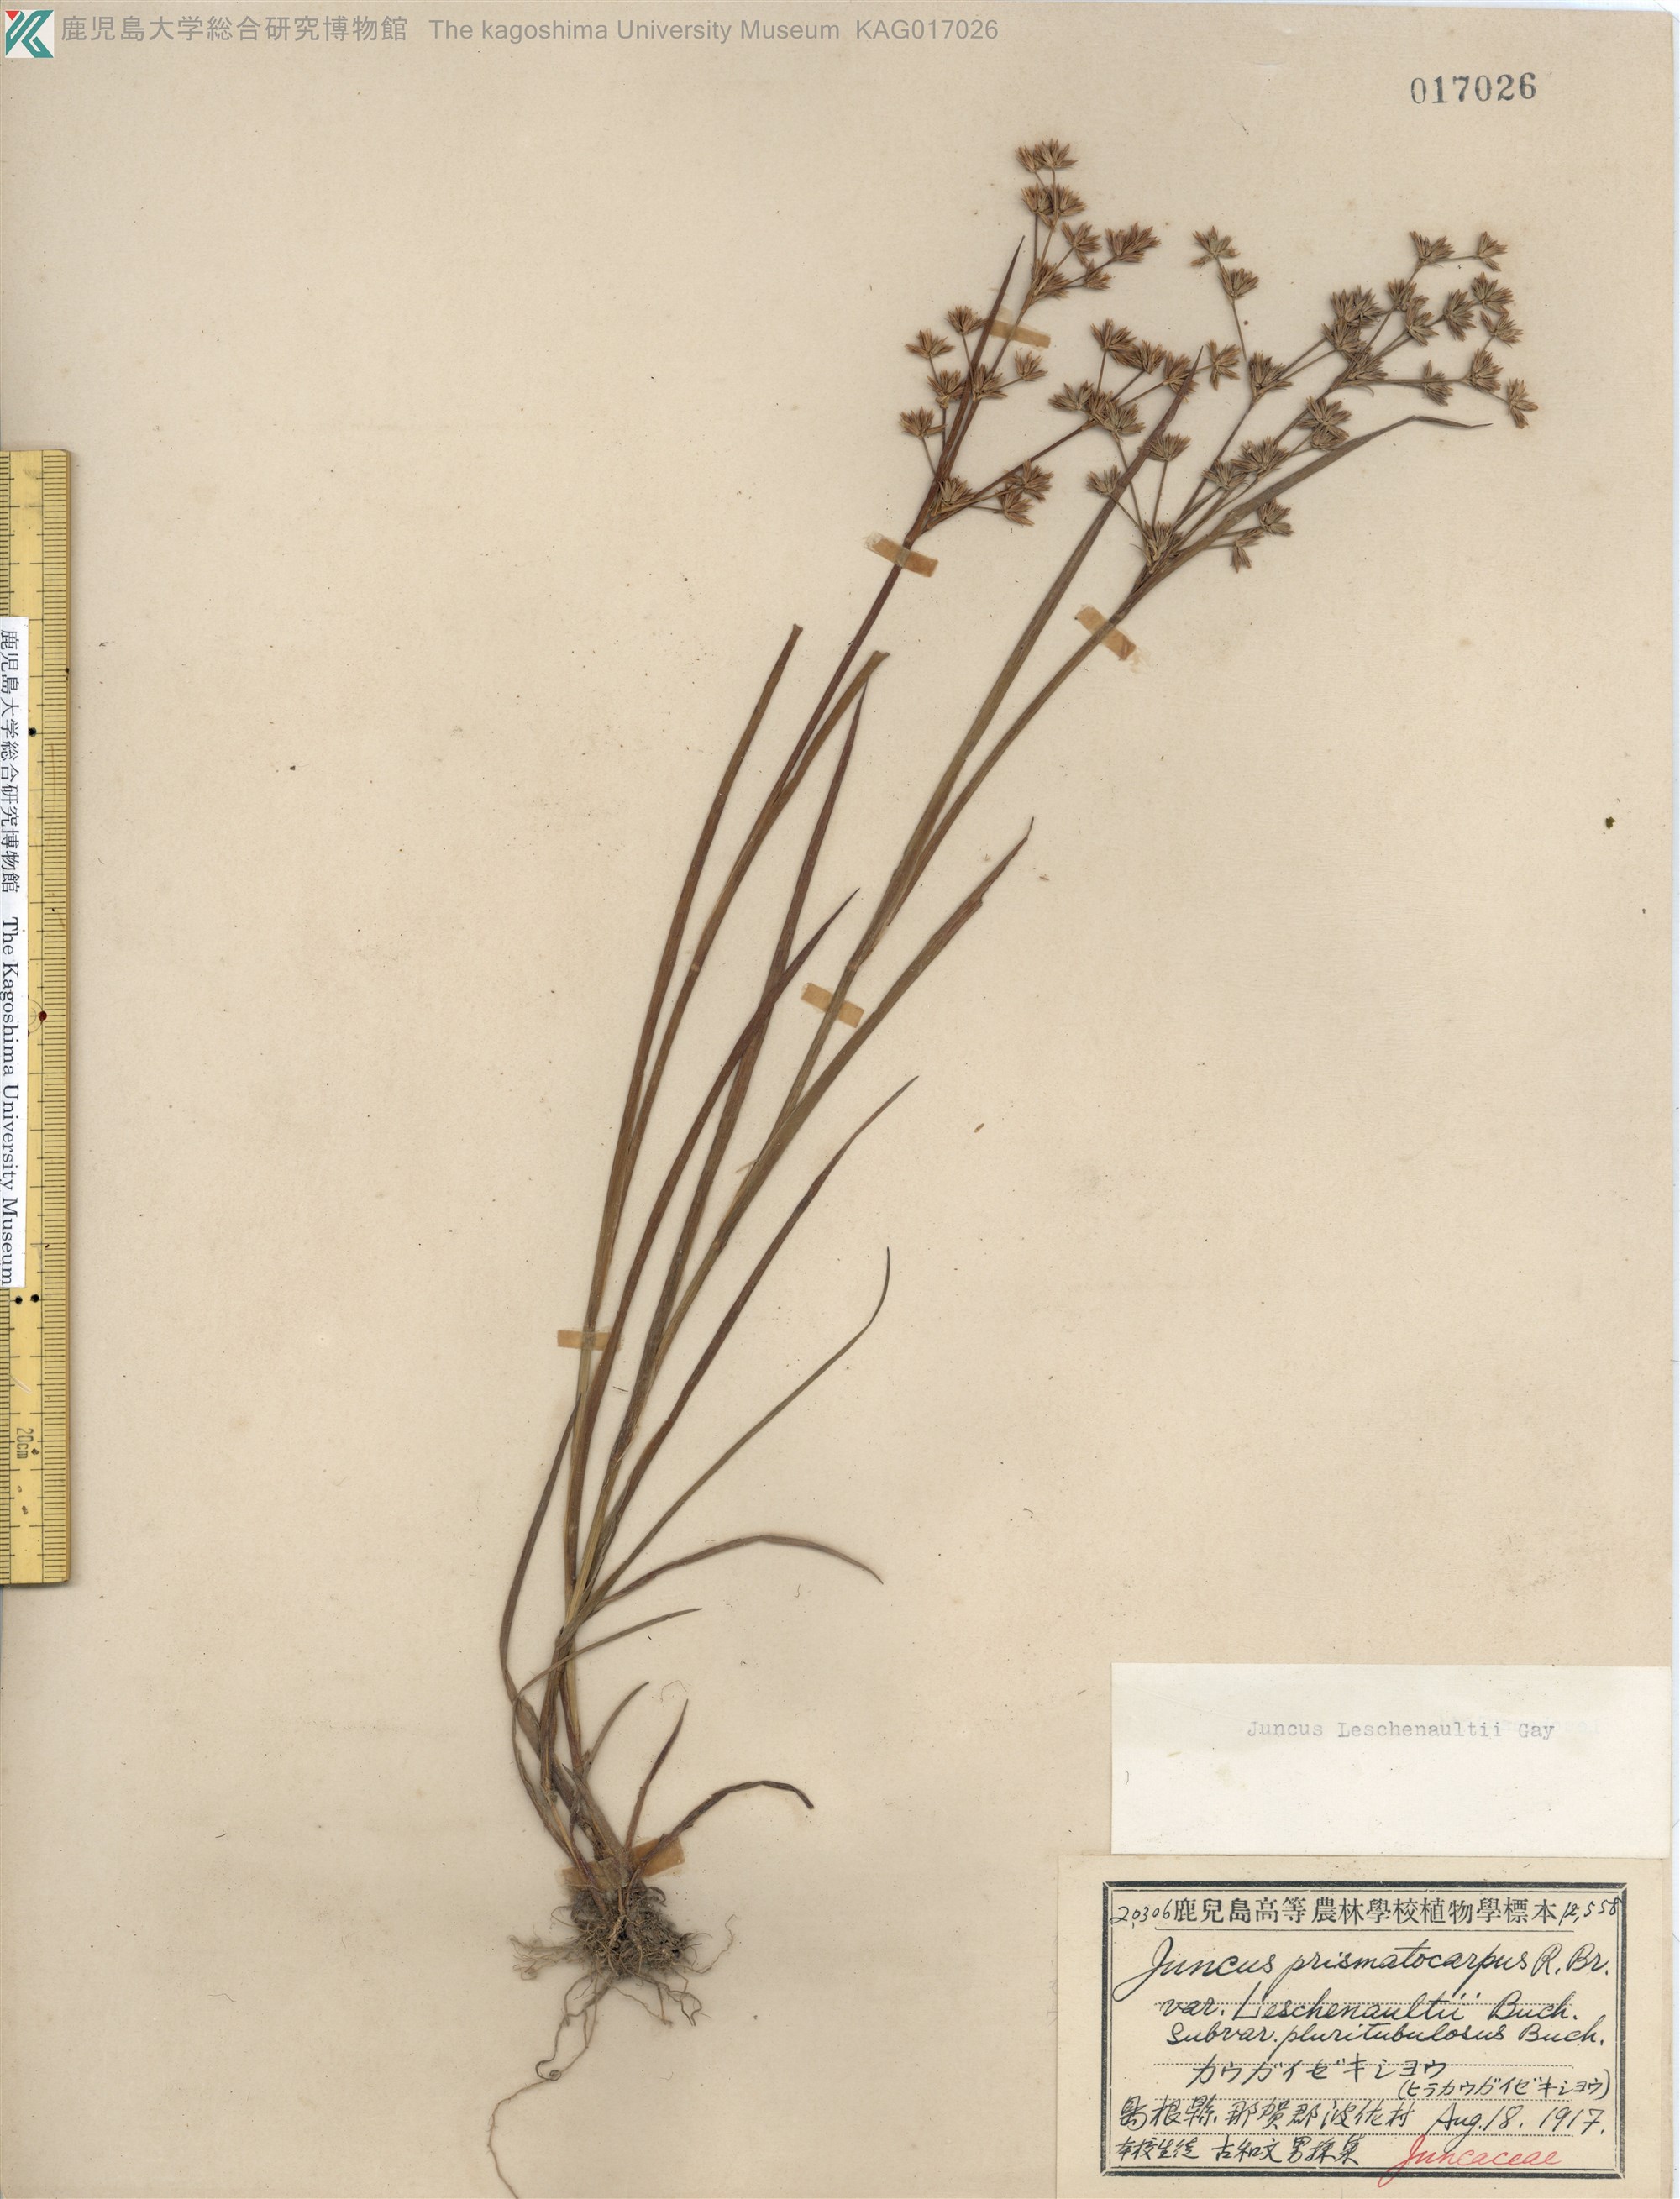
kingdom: Plantae
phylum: Tracheophyta
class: Liliopsida
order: Poales
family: Juncaceae
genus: Juncus
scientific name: Juncus prismatocarpus
